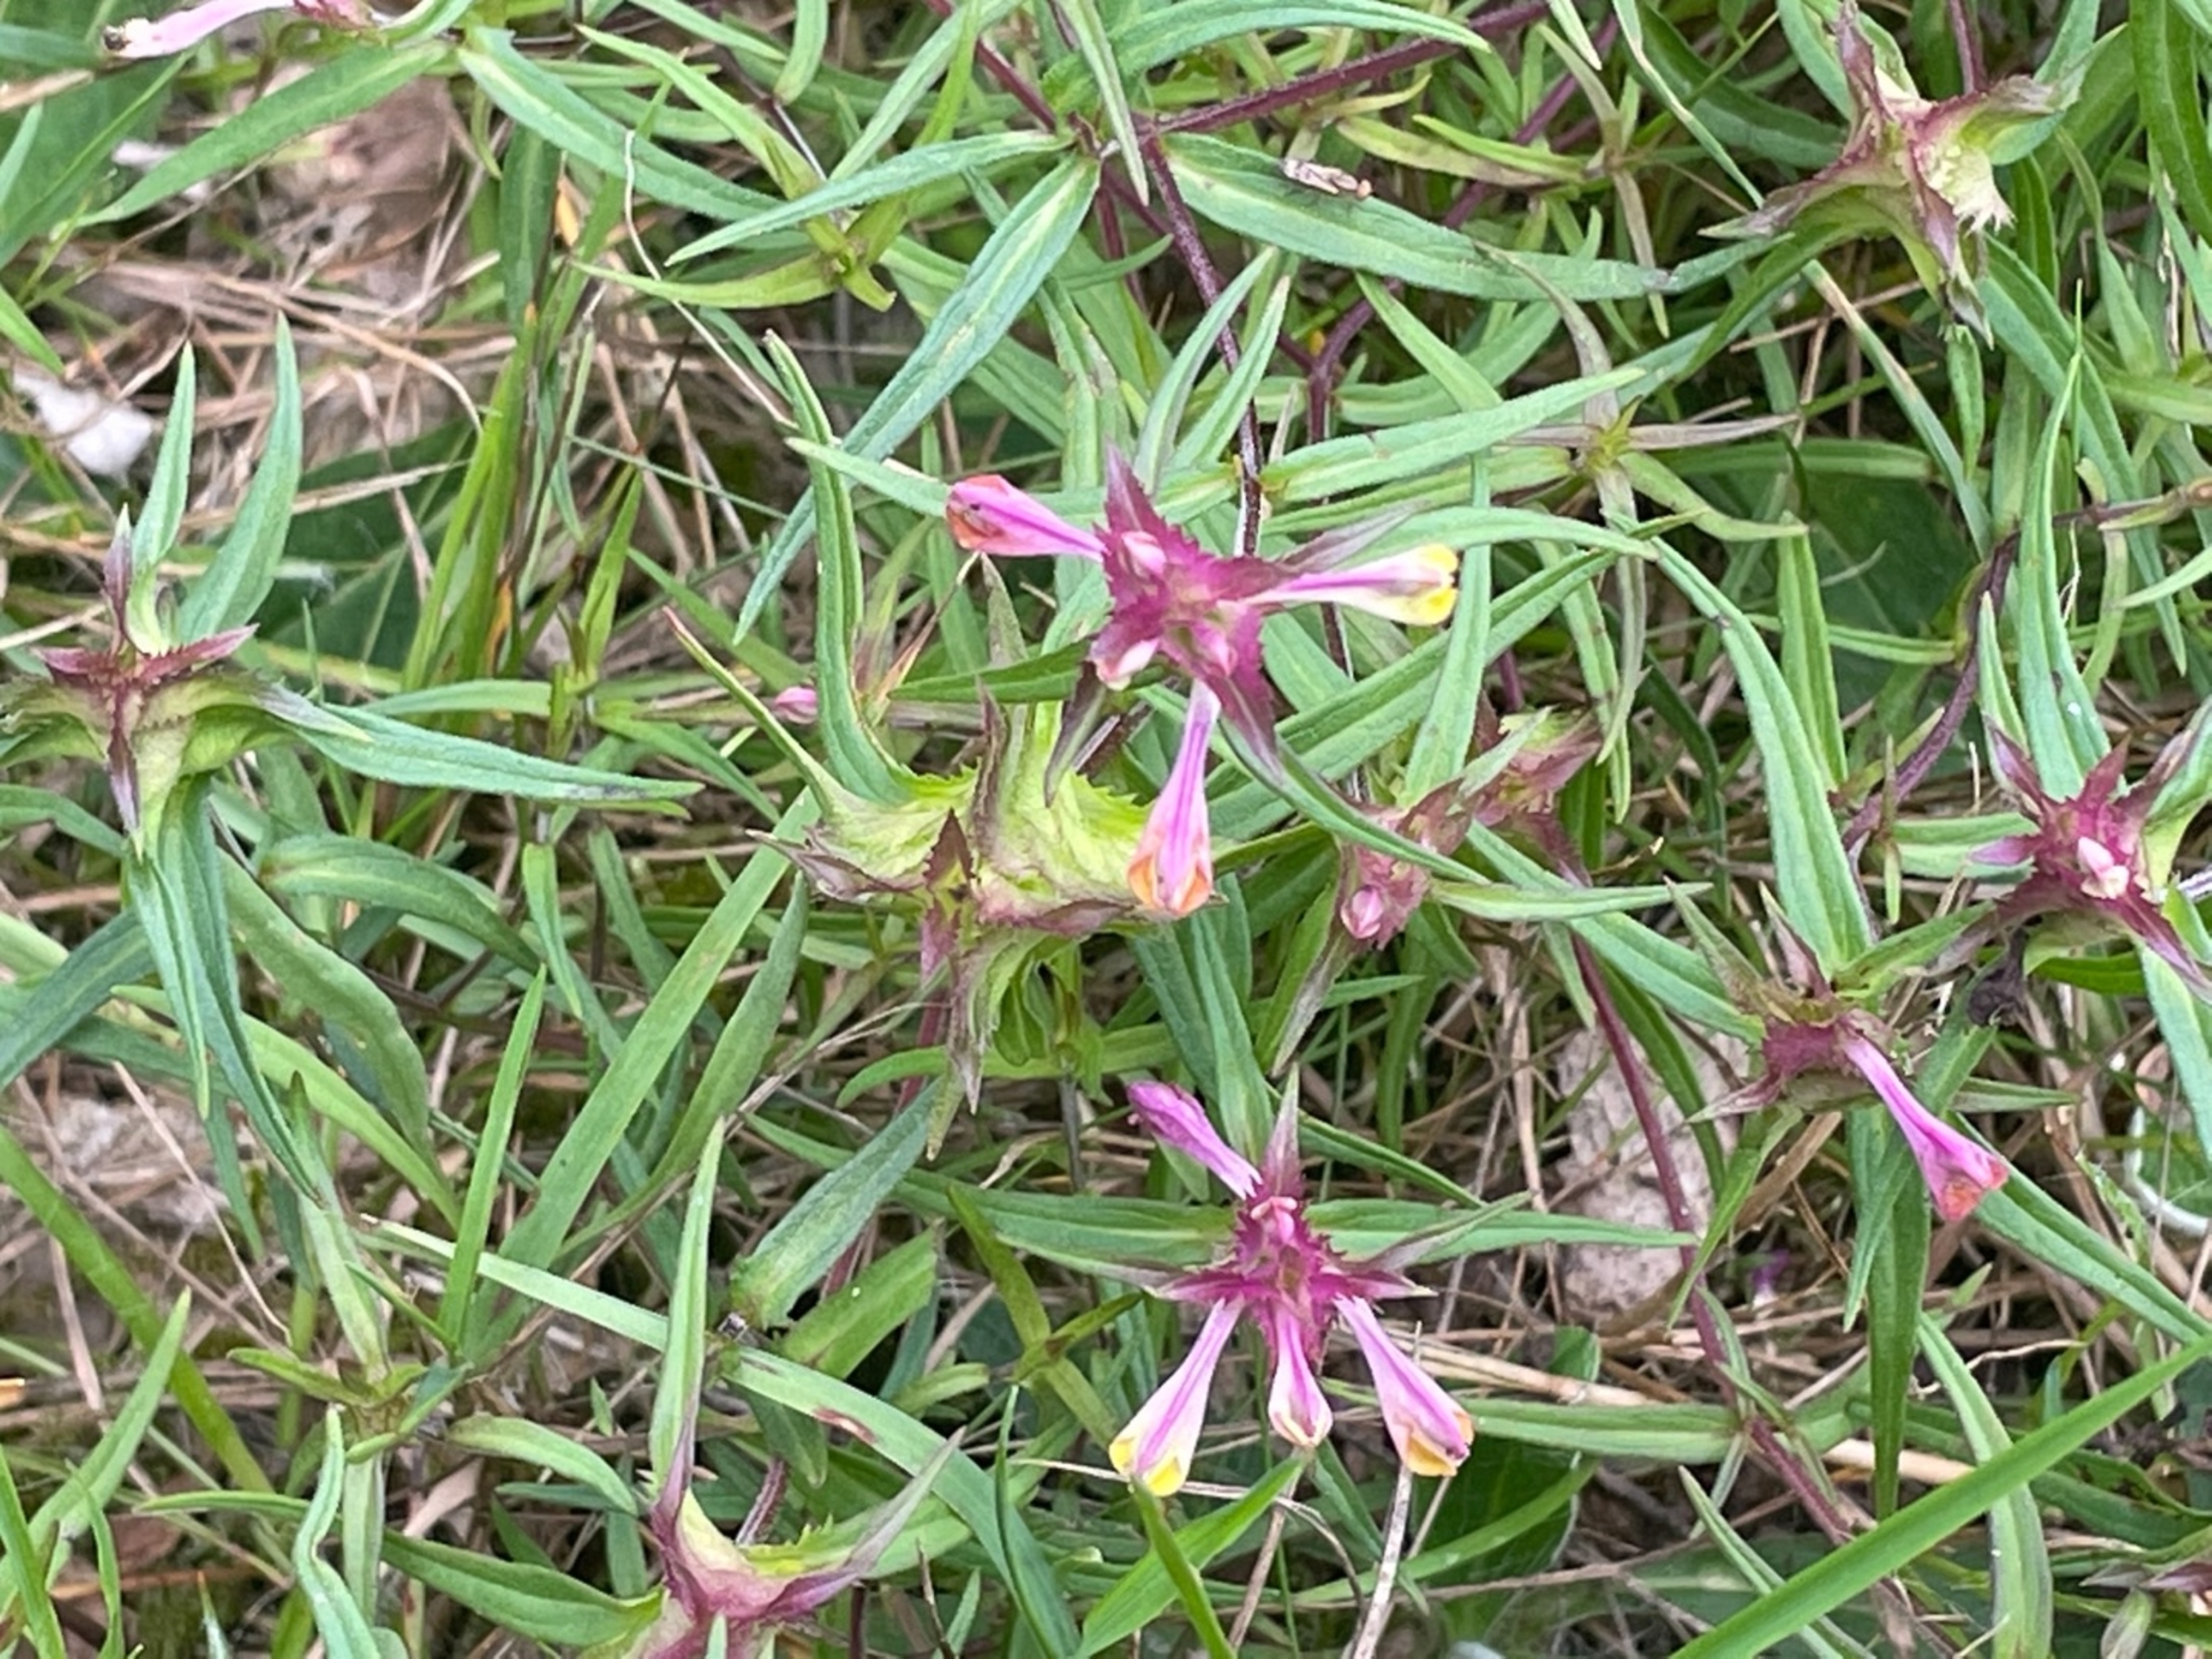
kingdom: Plantae
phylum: Tracheophyta
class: Magnoliopsida
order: Lamiales
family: Orobanchaceae
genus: Melampyrum
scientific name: Melampyrum cristatum
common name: Kantet kohvede
